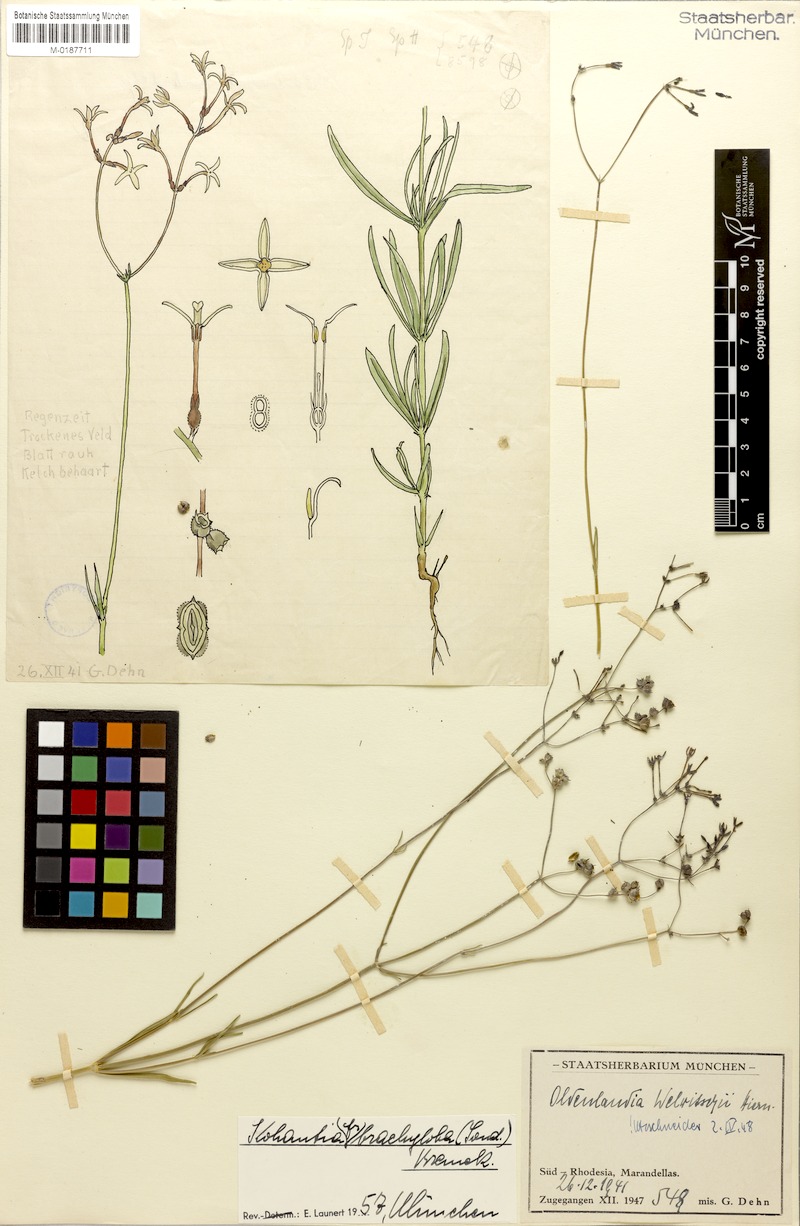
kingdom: Plantae
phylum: Tracheophyta
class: Magnoliopsida
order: Gentianales
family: Rubiaceae
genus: Kohautia
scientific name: Kohautia caespitosa
